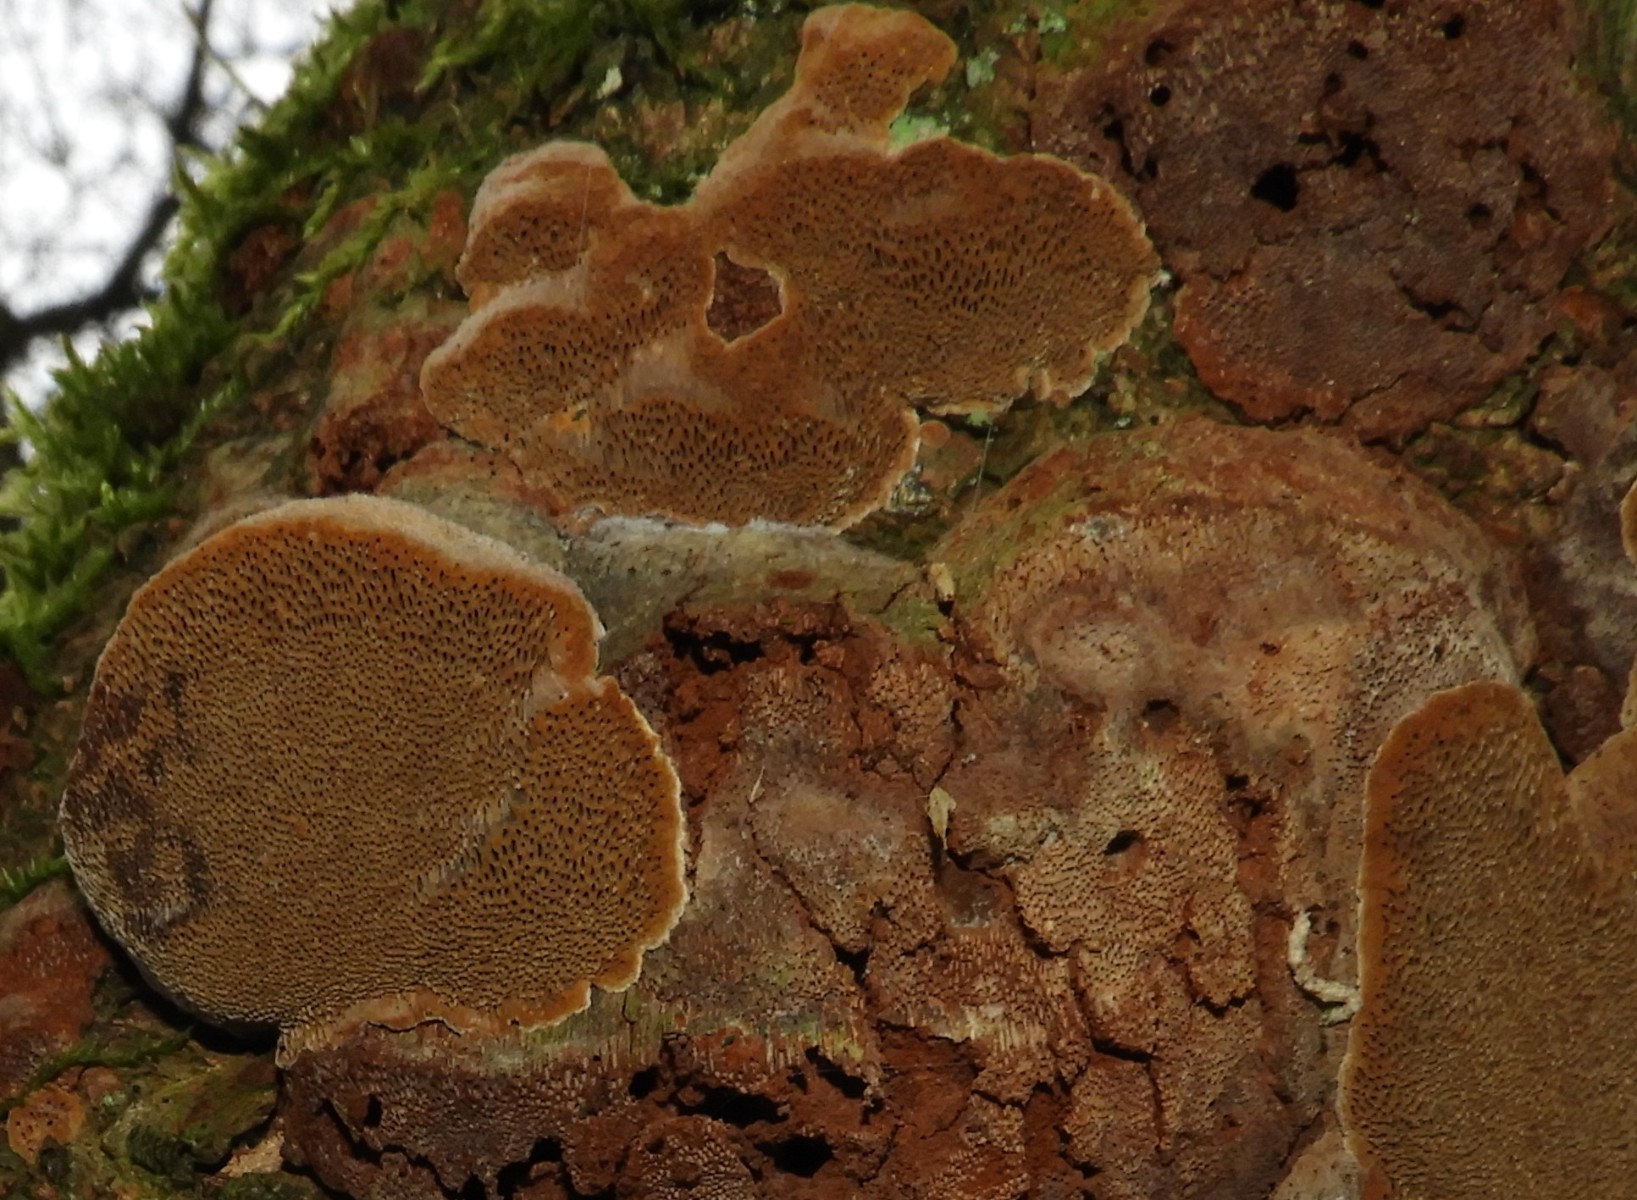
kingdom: Fungi
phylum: Basidiomycota
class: Agaricomycetes
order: Hymenochaetales
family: Hymenochaetaceae
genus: Phellinus
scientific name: Phellinus pomaceus
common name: blomme-ildporesvamp
